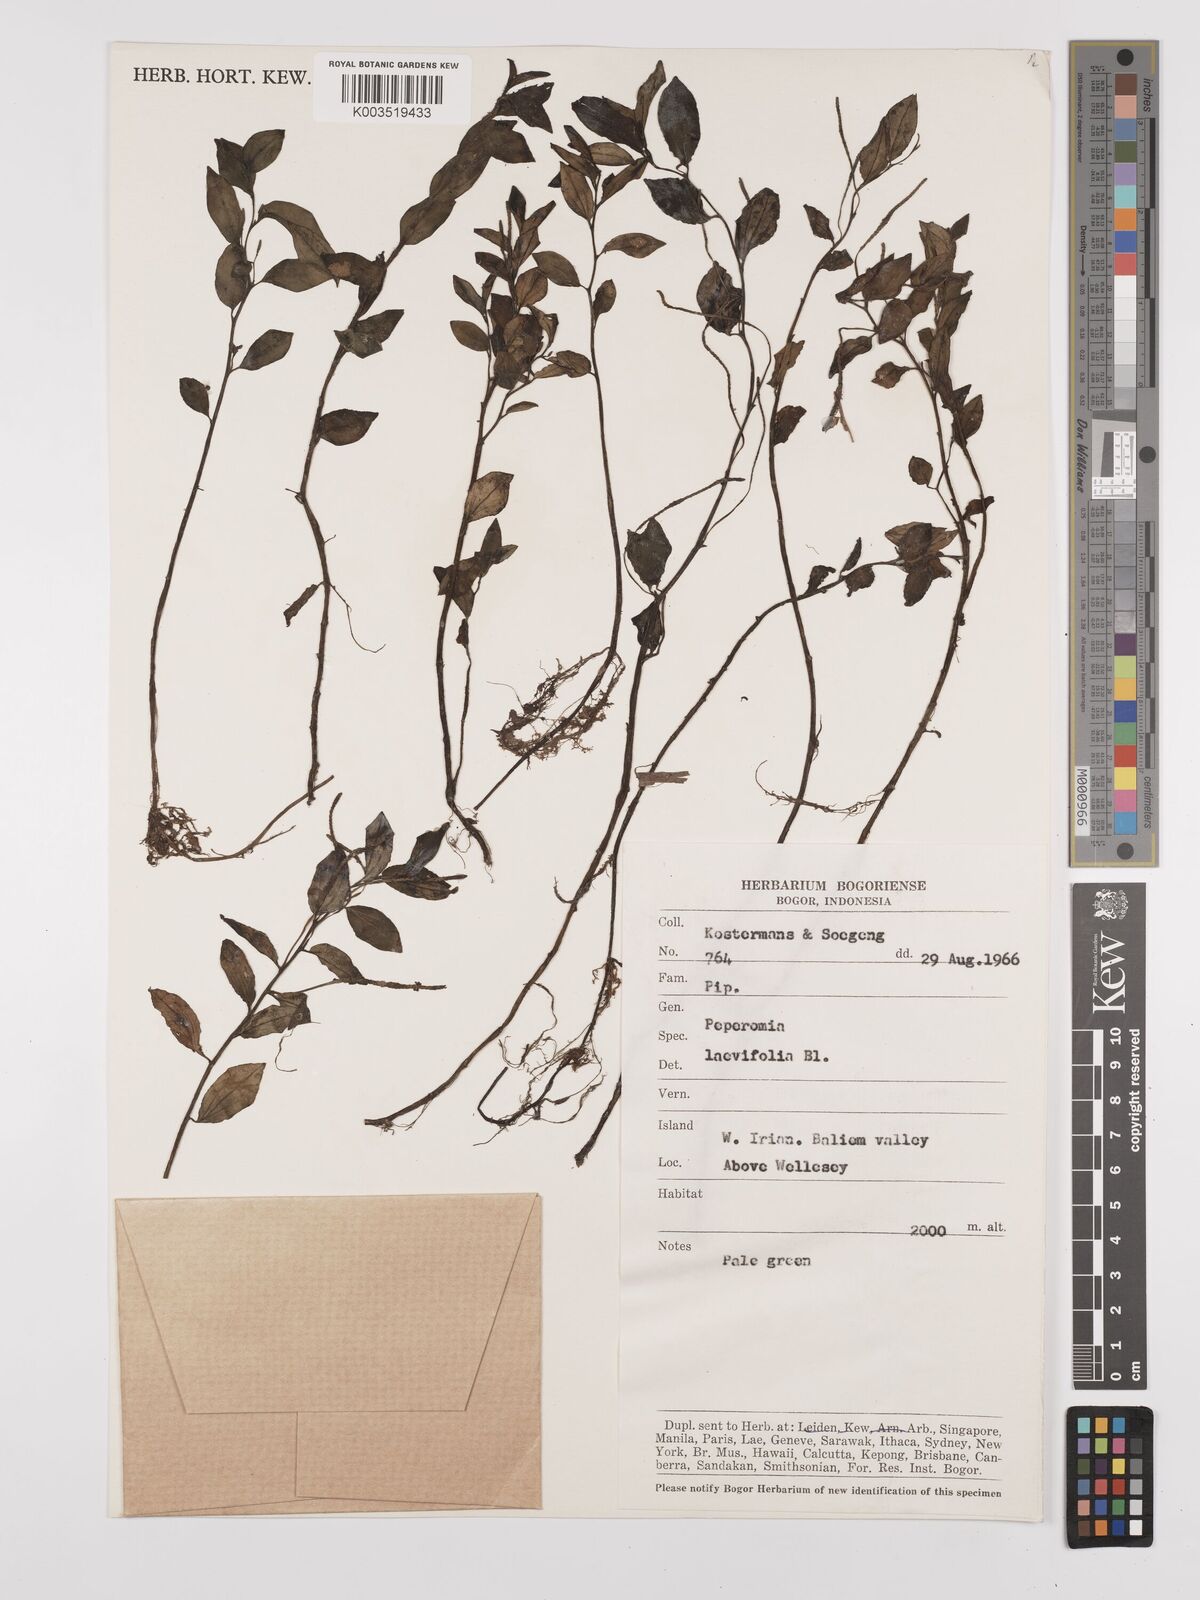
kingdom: Plantae
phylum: Tracheophyta
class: Magnoliopsida
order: Piperales
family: Piperaceae
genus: Peperomia
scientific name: Peperomia
